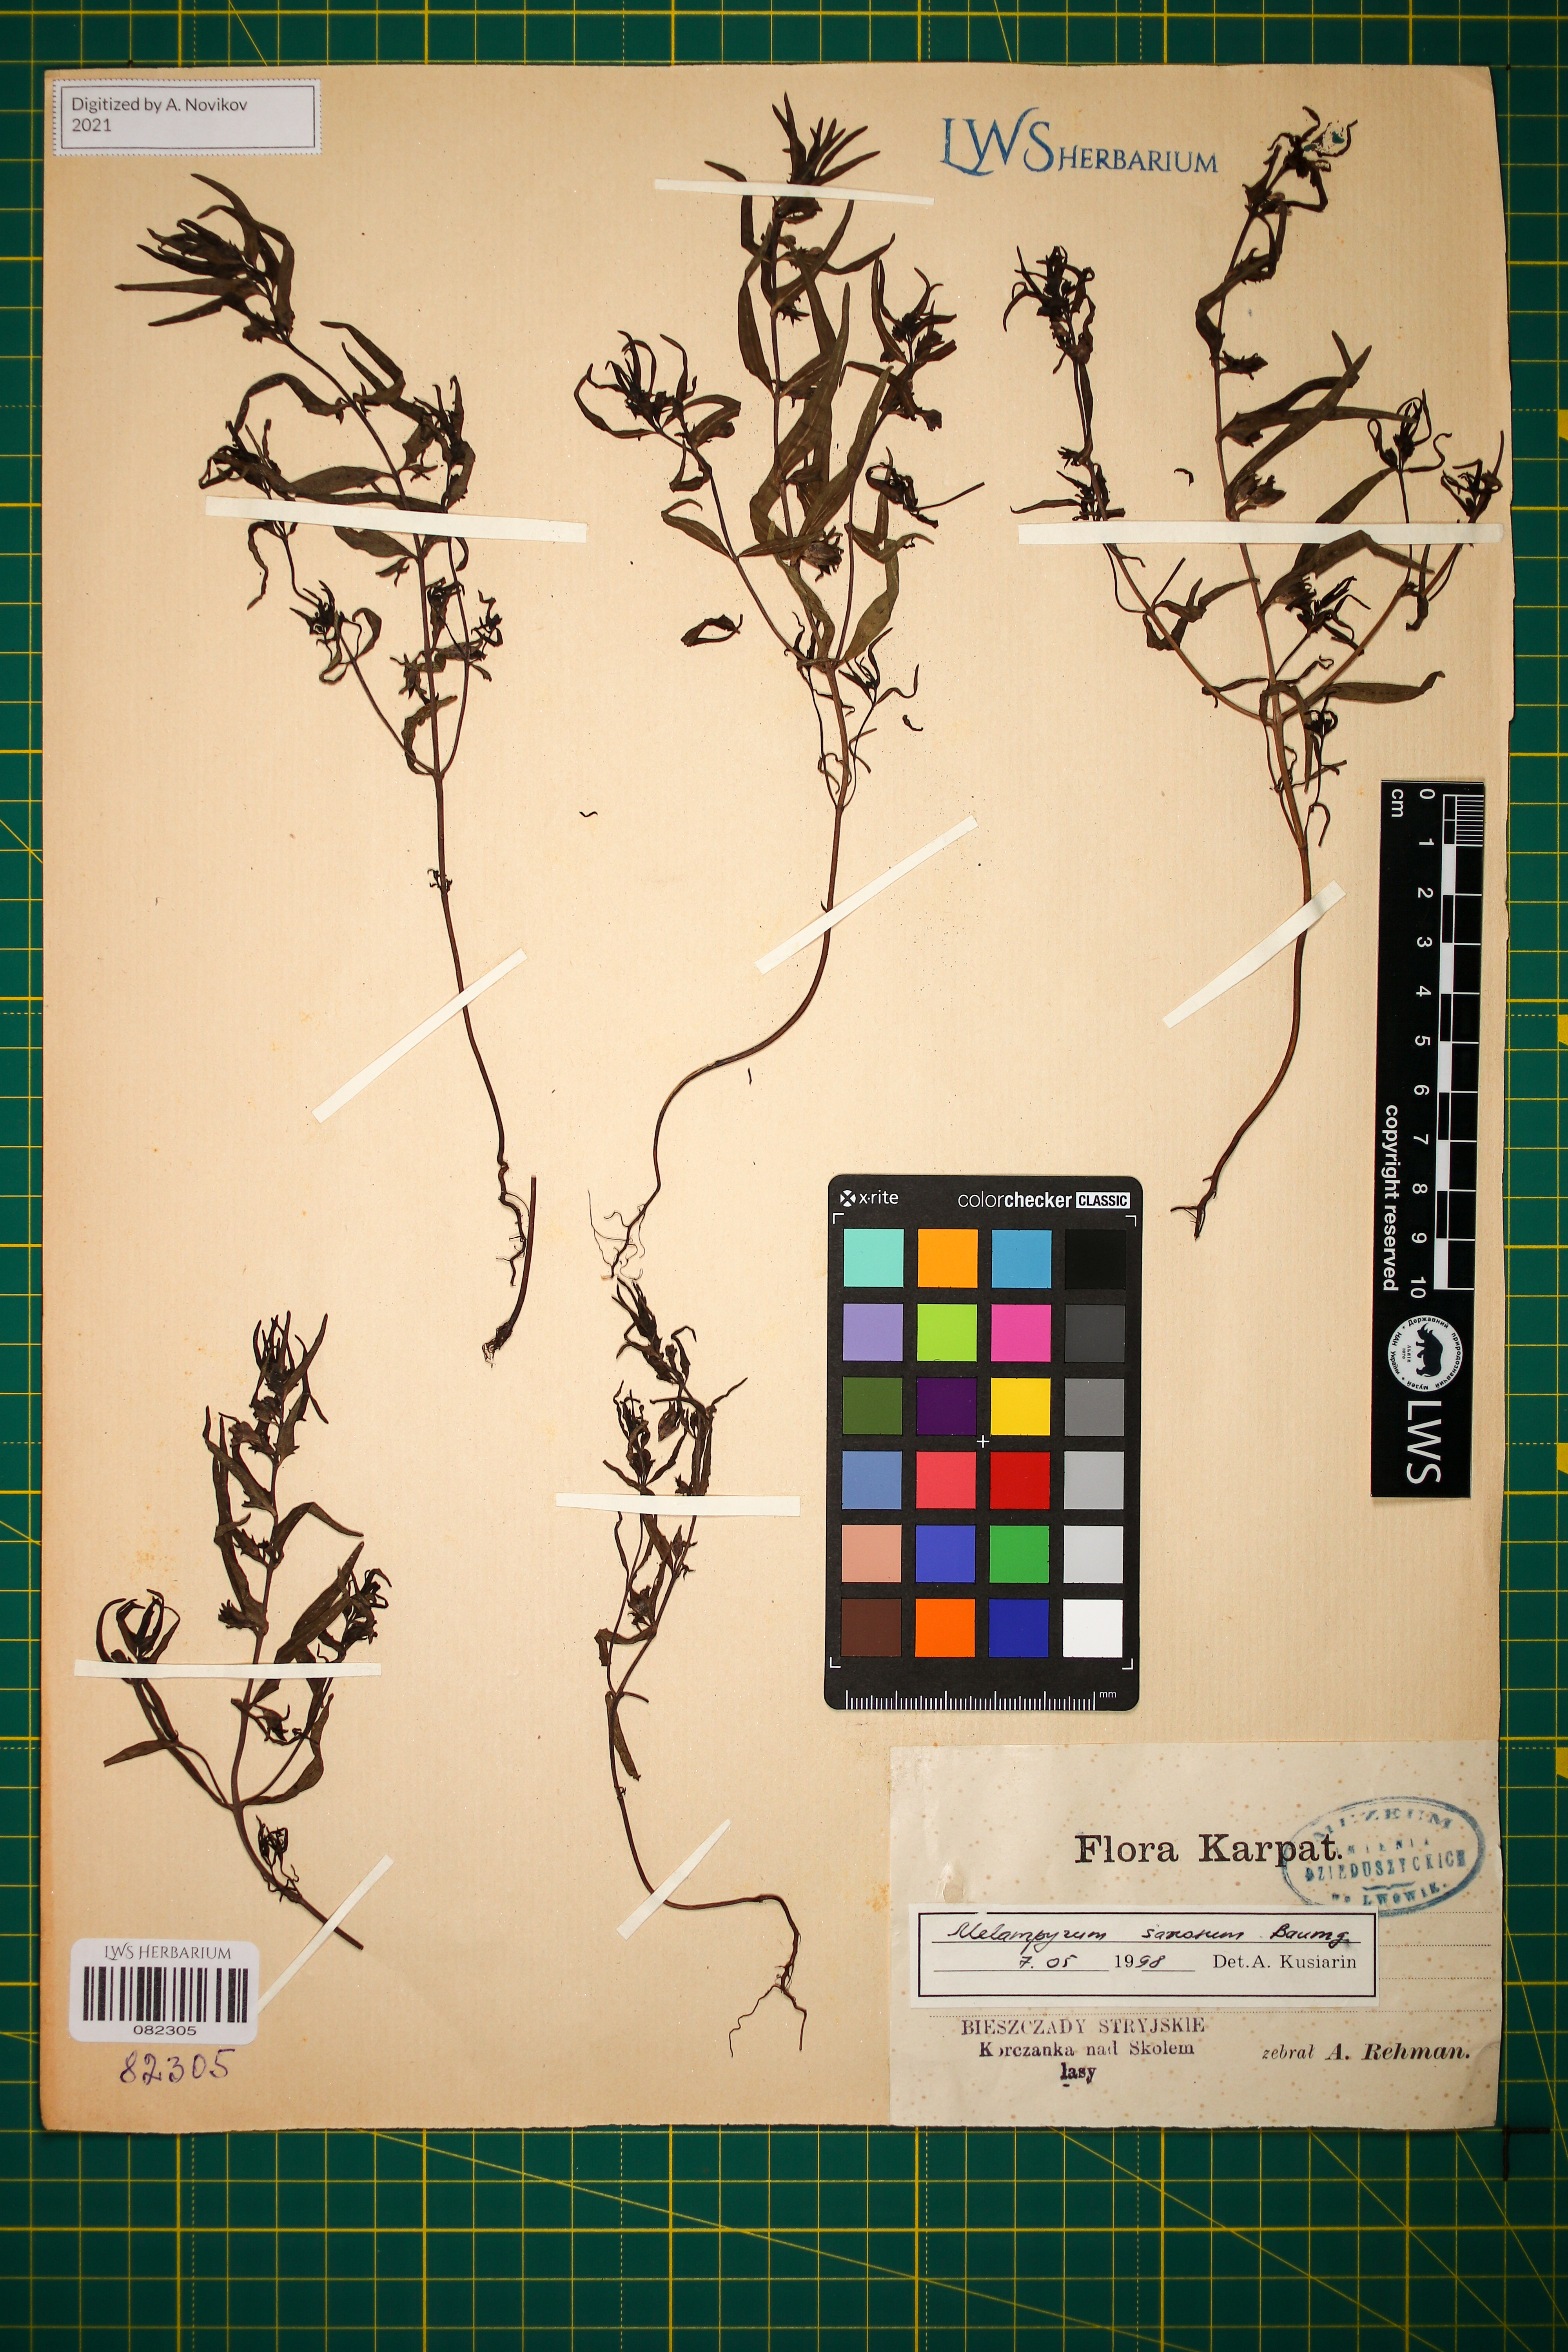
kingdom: Plantae
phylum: Tracheophyta
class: Magnoliopsida
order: Lamiales
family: Orobanchaceae
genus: Melampyrum
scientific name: Melampyrum saxosum
